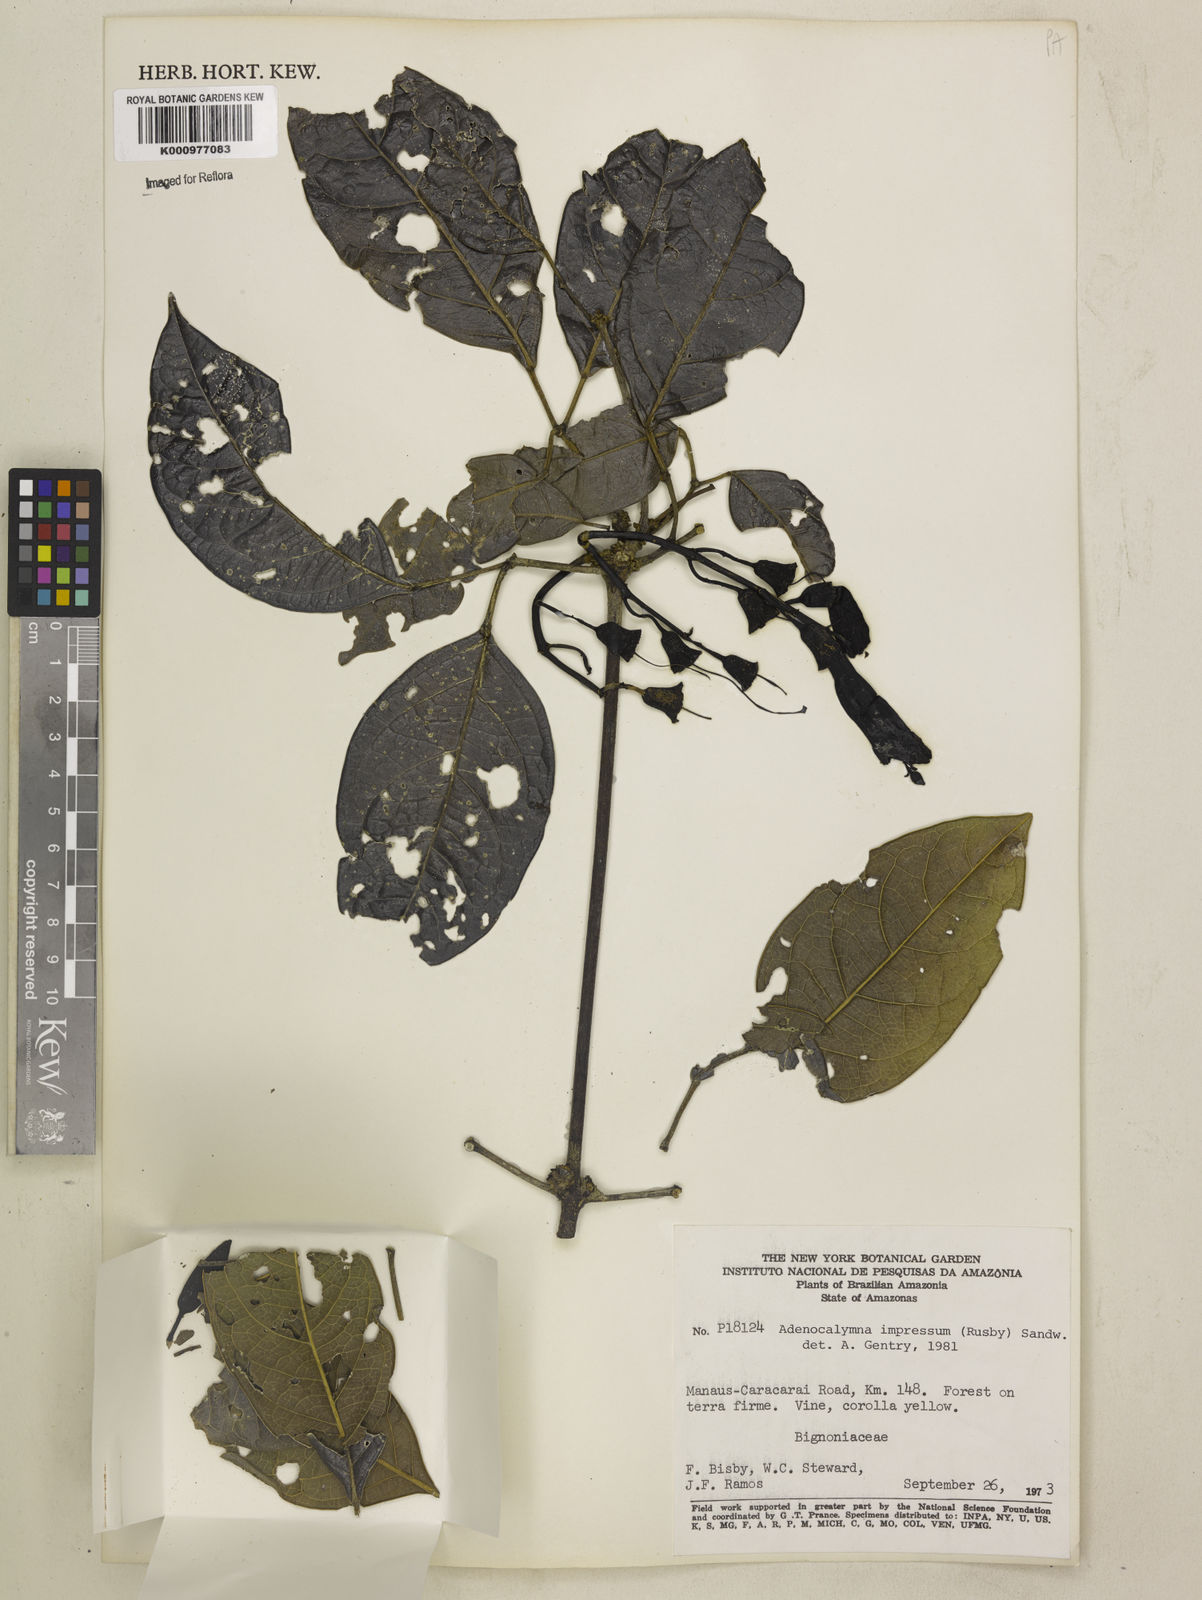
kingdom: Plantae
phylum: Tracheophyta
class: Magnoliopsida
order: Lamiales
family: Bignoniaceae
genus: Adenocalymma
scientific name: Adenocalymma impressum
